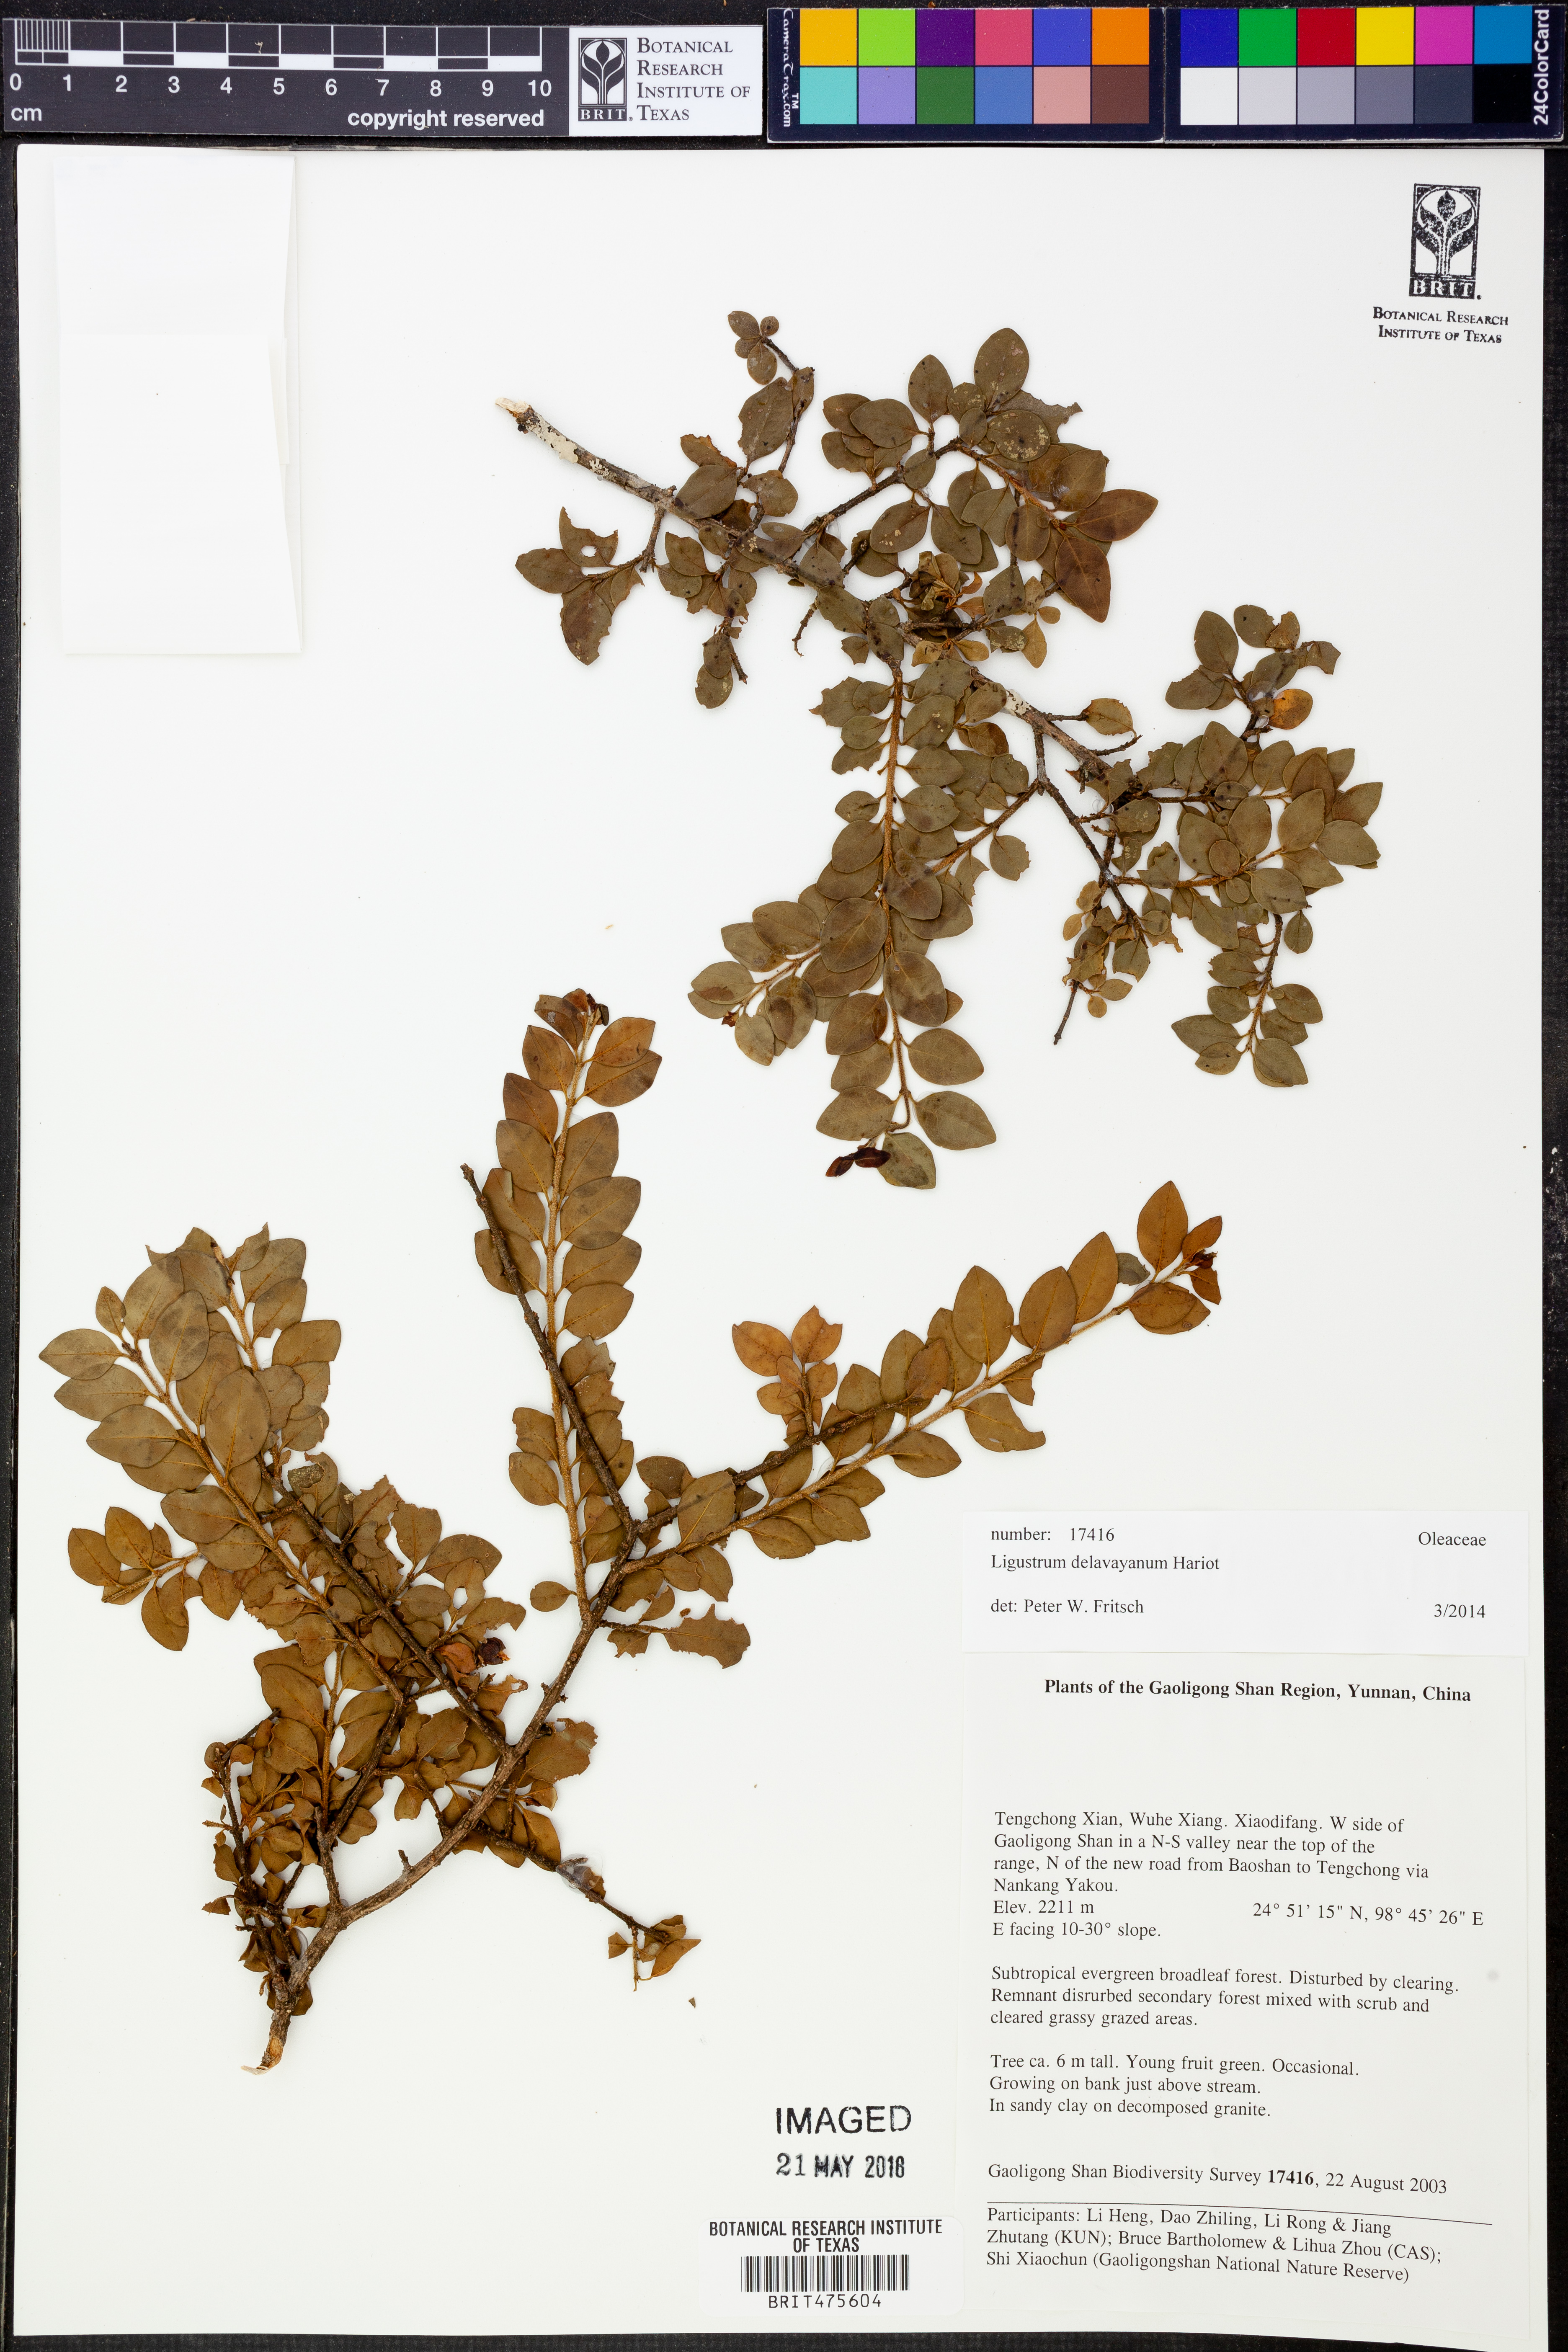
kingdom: Plantae
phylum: Tracheophyta
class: Magnoliopsida
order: Lamiales
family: Oleaceae
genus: Ligustrum
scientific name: Ligustrum delavayanum
